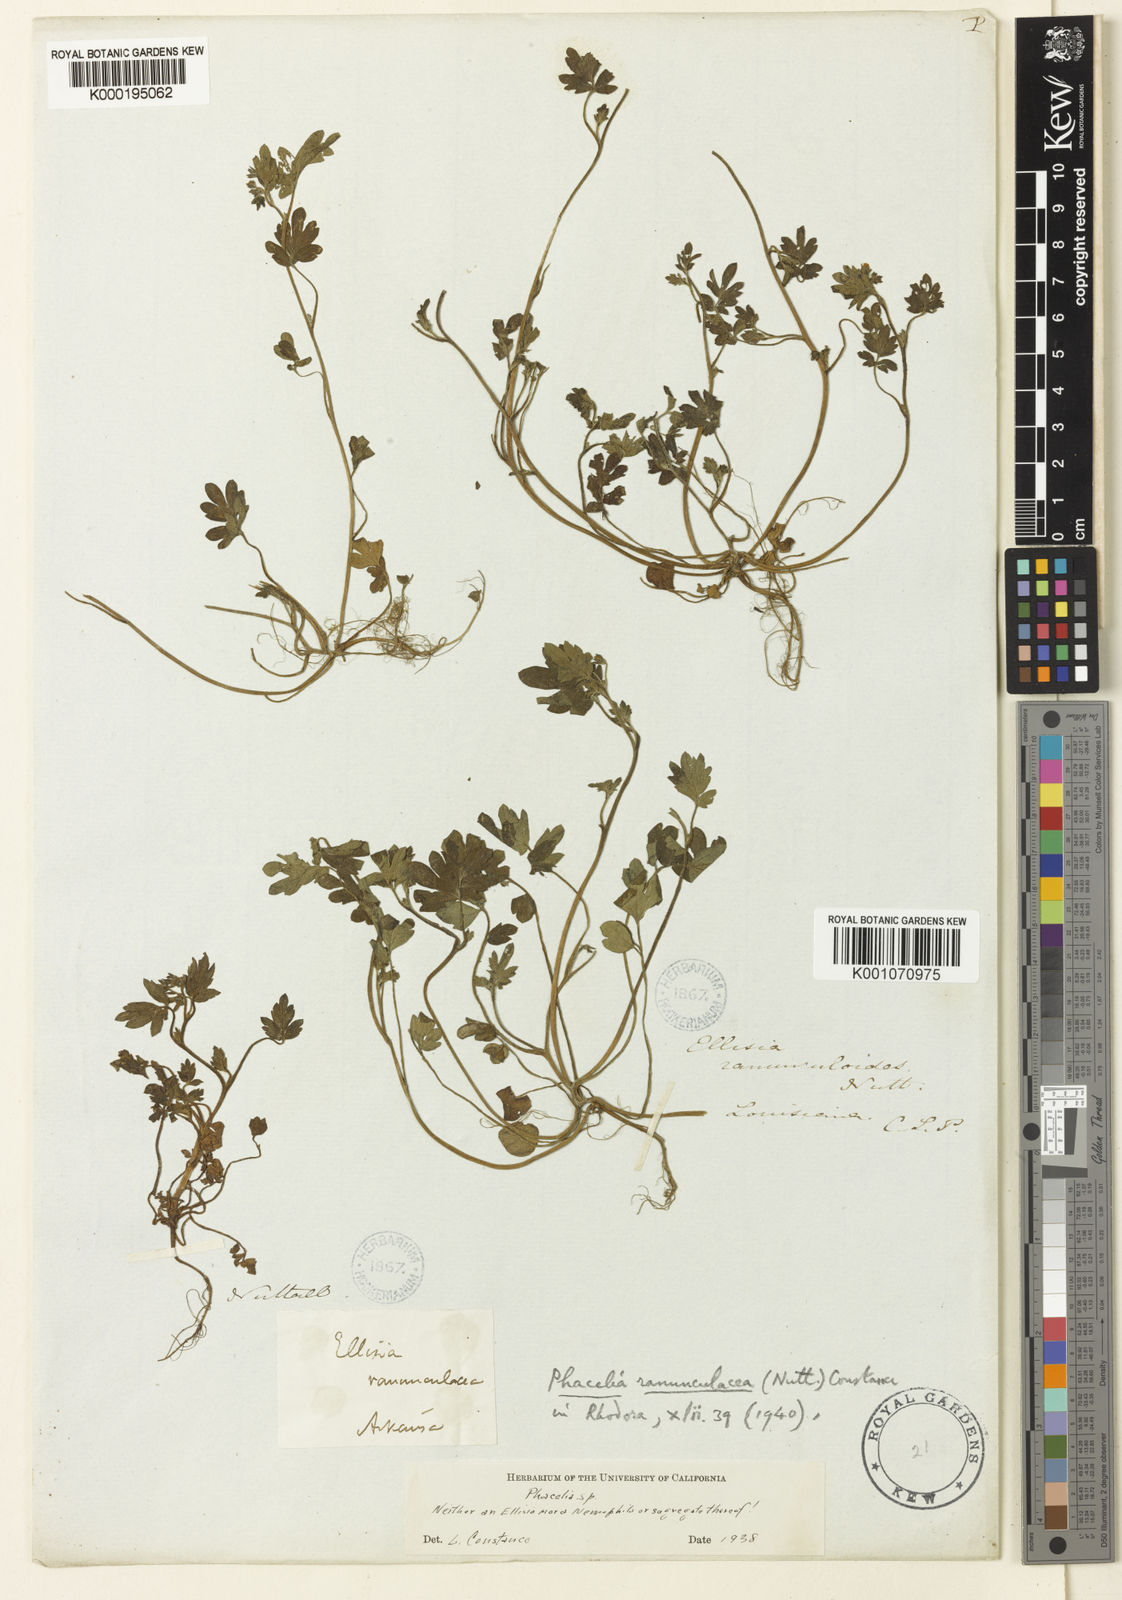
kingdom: Plantae
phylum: Tracheophyta
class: Magnoliopsida
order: Boraginales
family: Hydrophyllaceae
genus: Phacelia
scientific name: Phacelia ranunculacea
